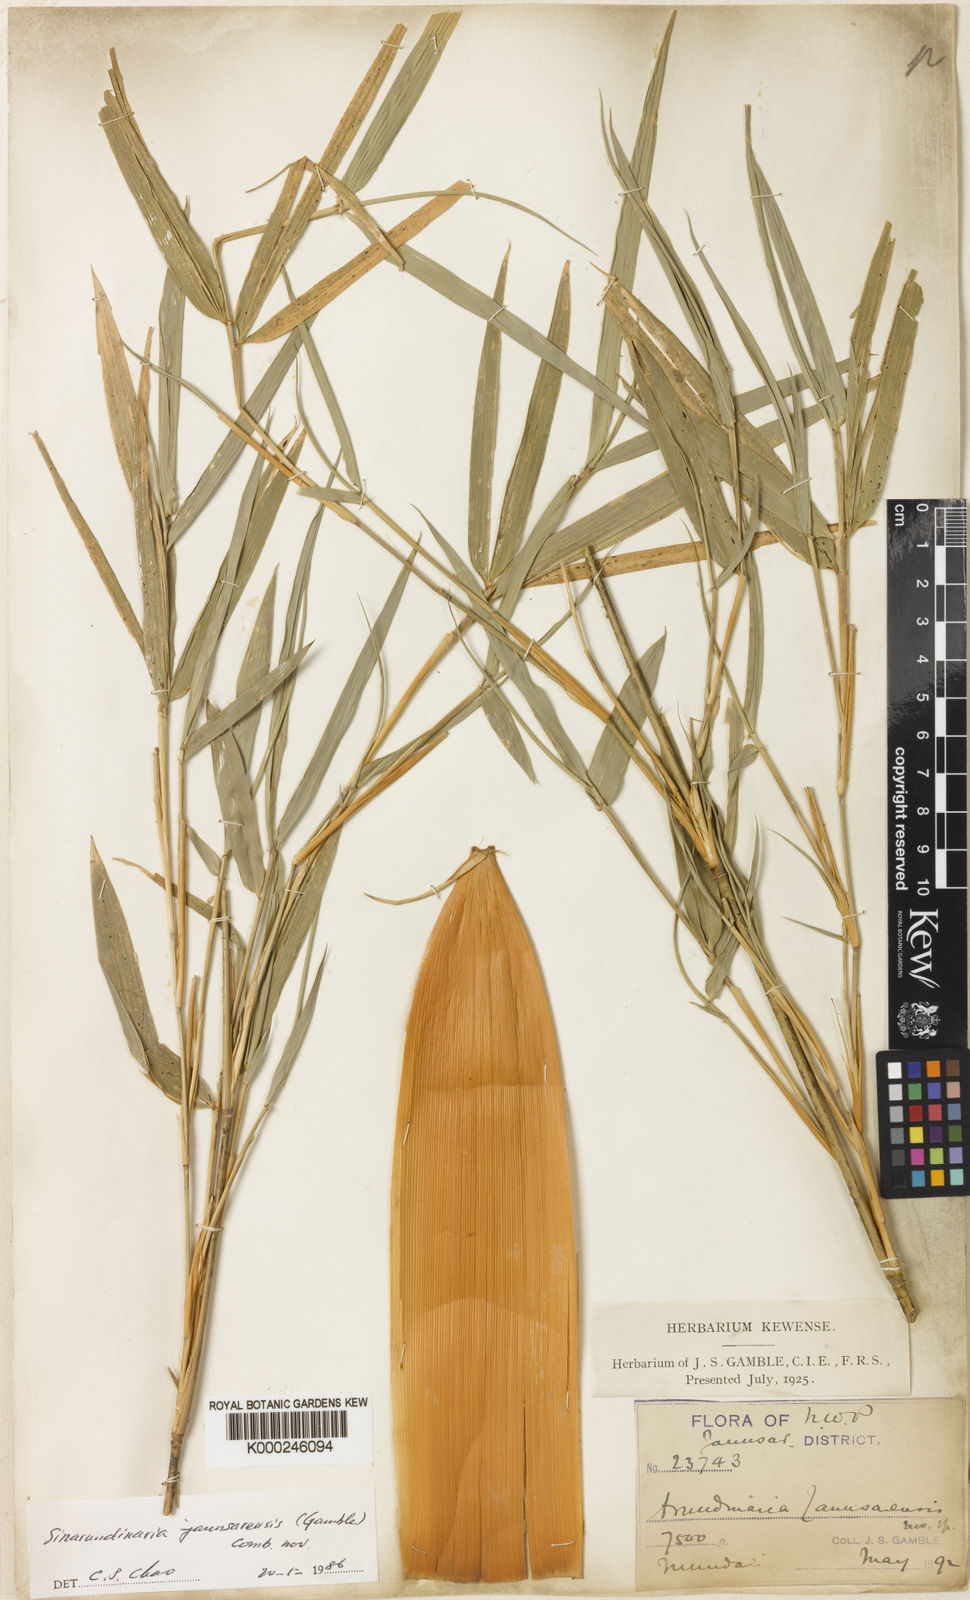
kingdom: Plantae
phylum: Tracheophyta
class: Liliopsida
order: Poales
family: Poaceae
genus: Yushania
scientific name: Yushania anceps
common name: Indian fountain-bamboo
